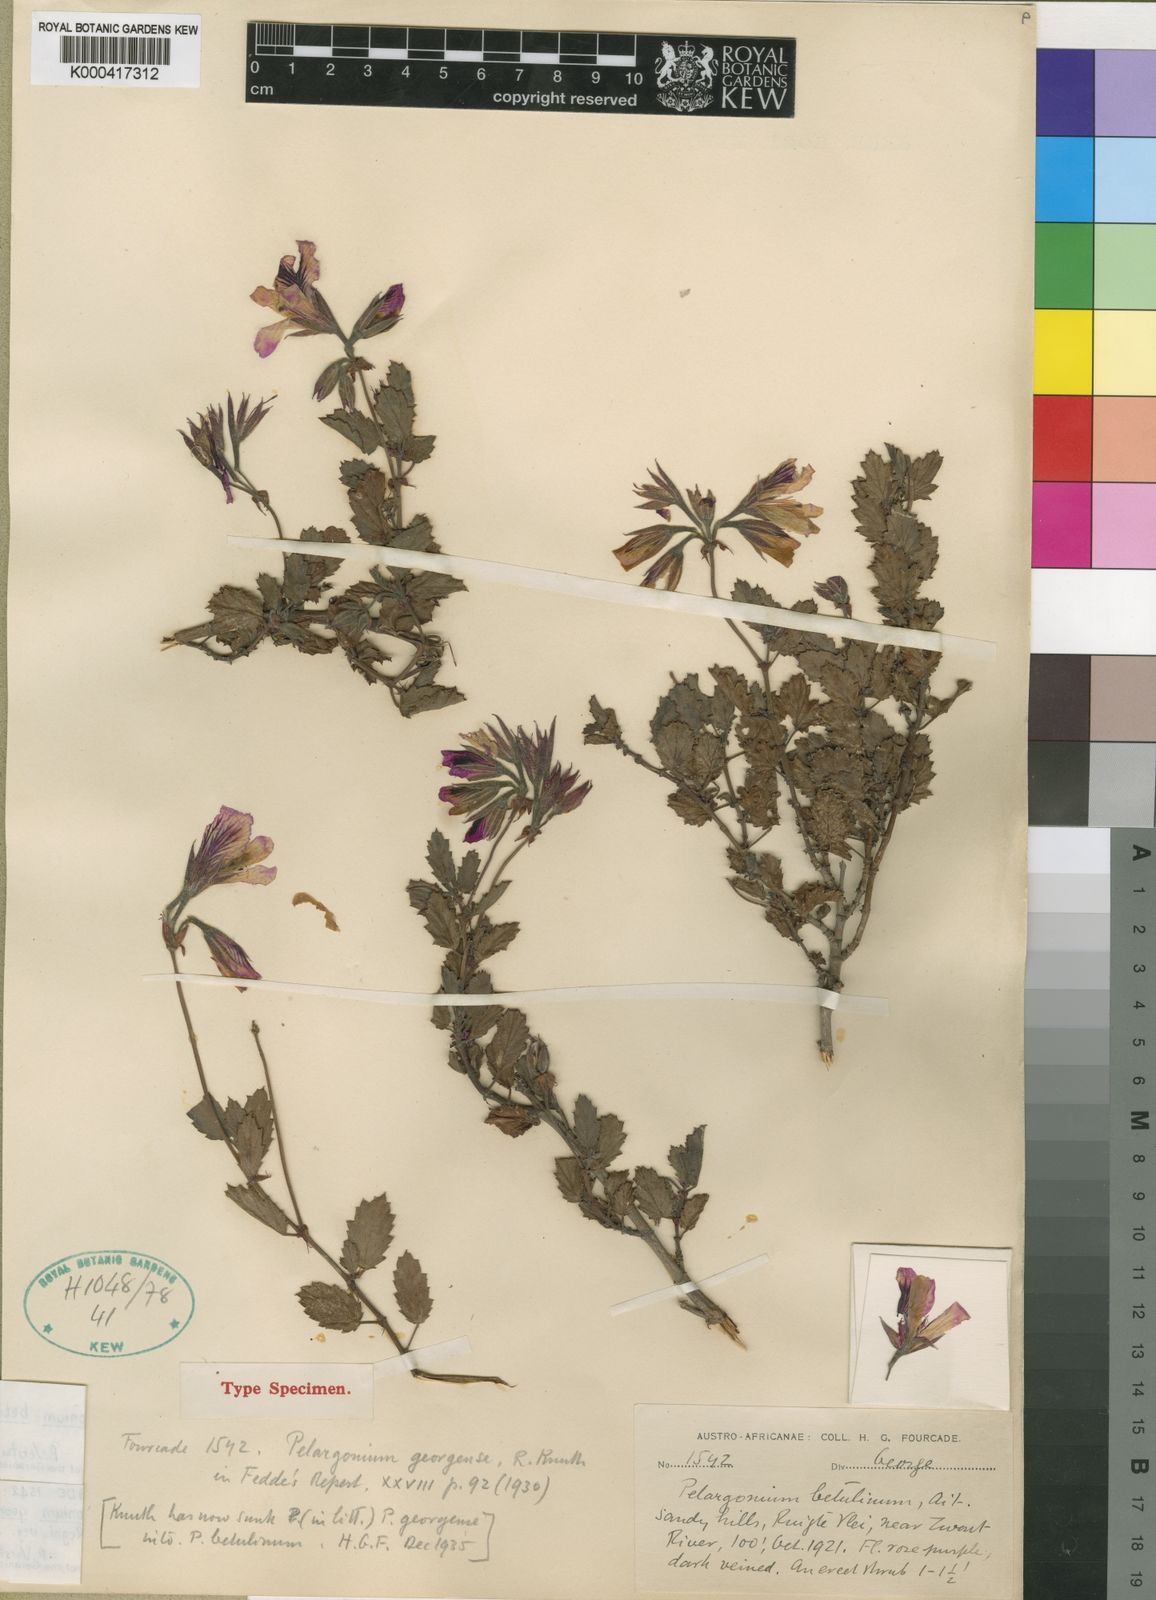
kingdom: Plantae
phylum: Tracheophyta
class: Magnoliopsida
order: Geraniales
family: Geraniaceae
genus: Pelargonium
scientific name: Pelargonium
